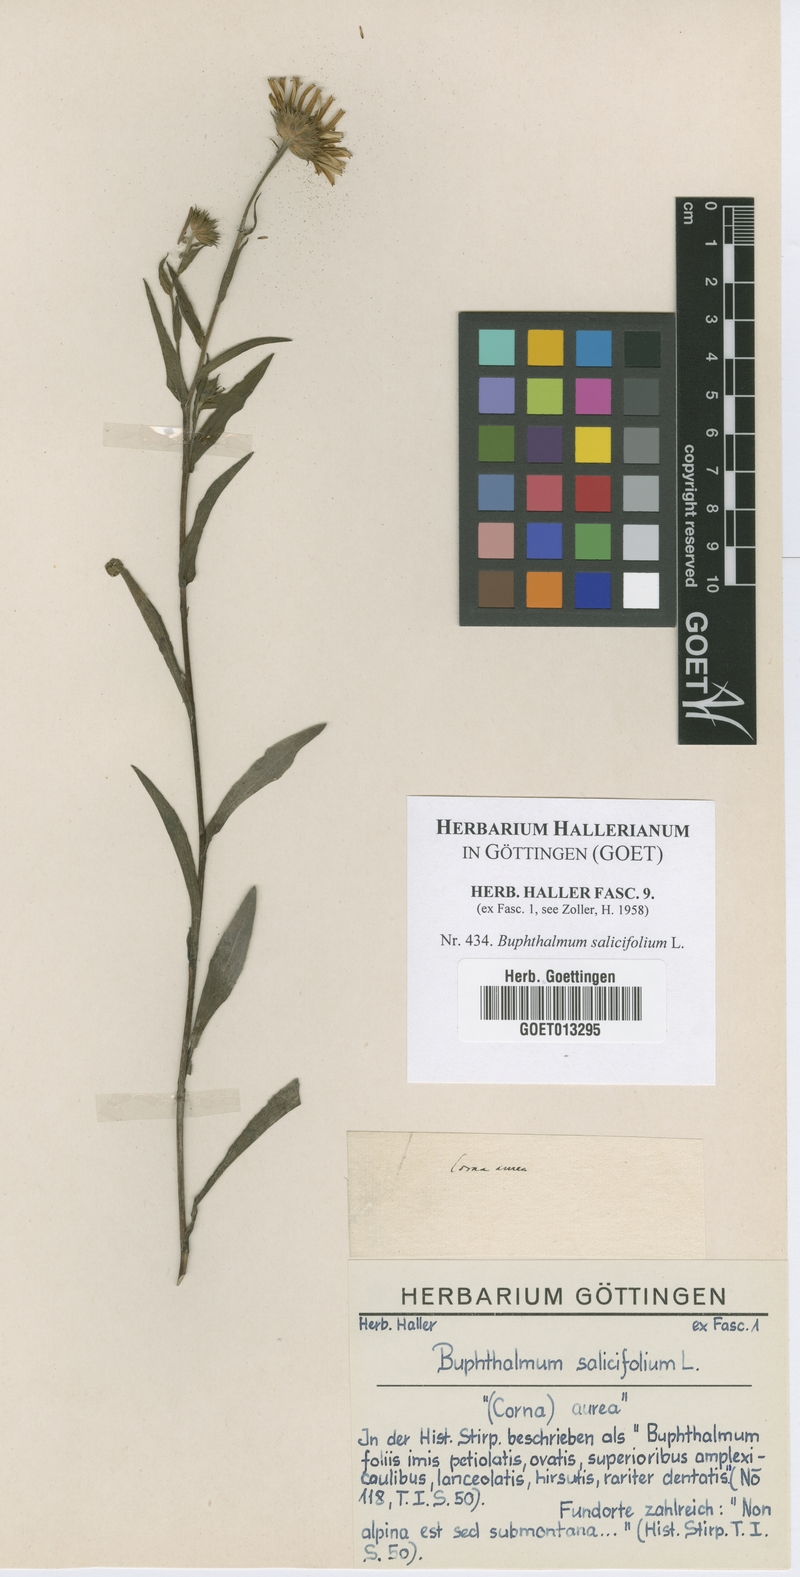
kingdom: Plantae
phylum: Tracheophyta
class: Magnoliopsida
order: Asterales
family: Asteraceae
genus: Buphthalmum
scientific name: Buphthalmum salicifolium
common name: Willow-leaved yellow-oxeye
